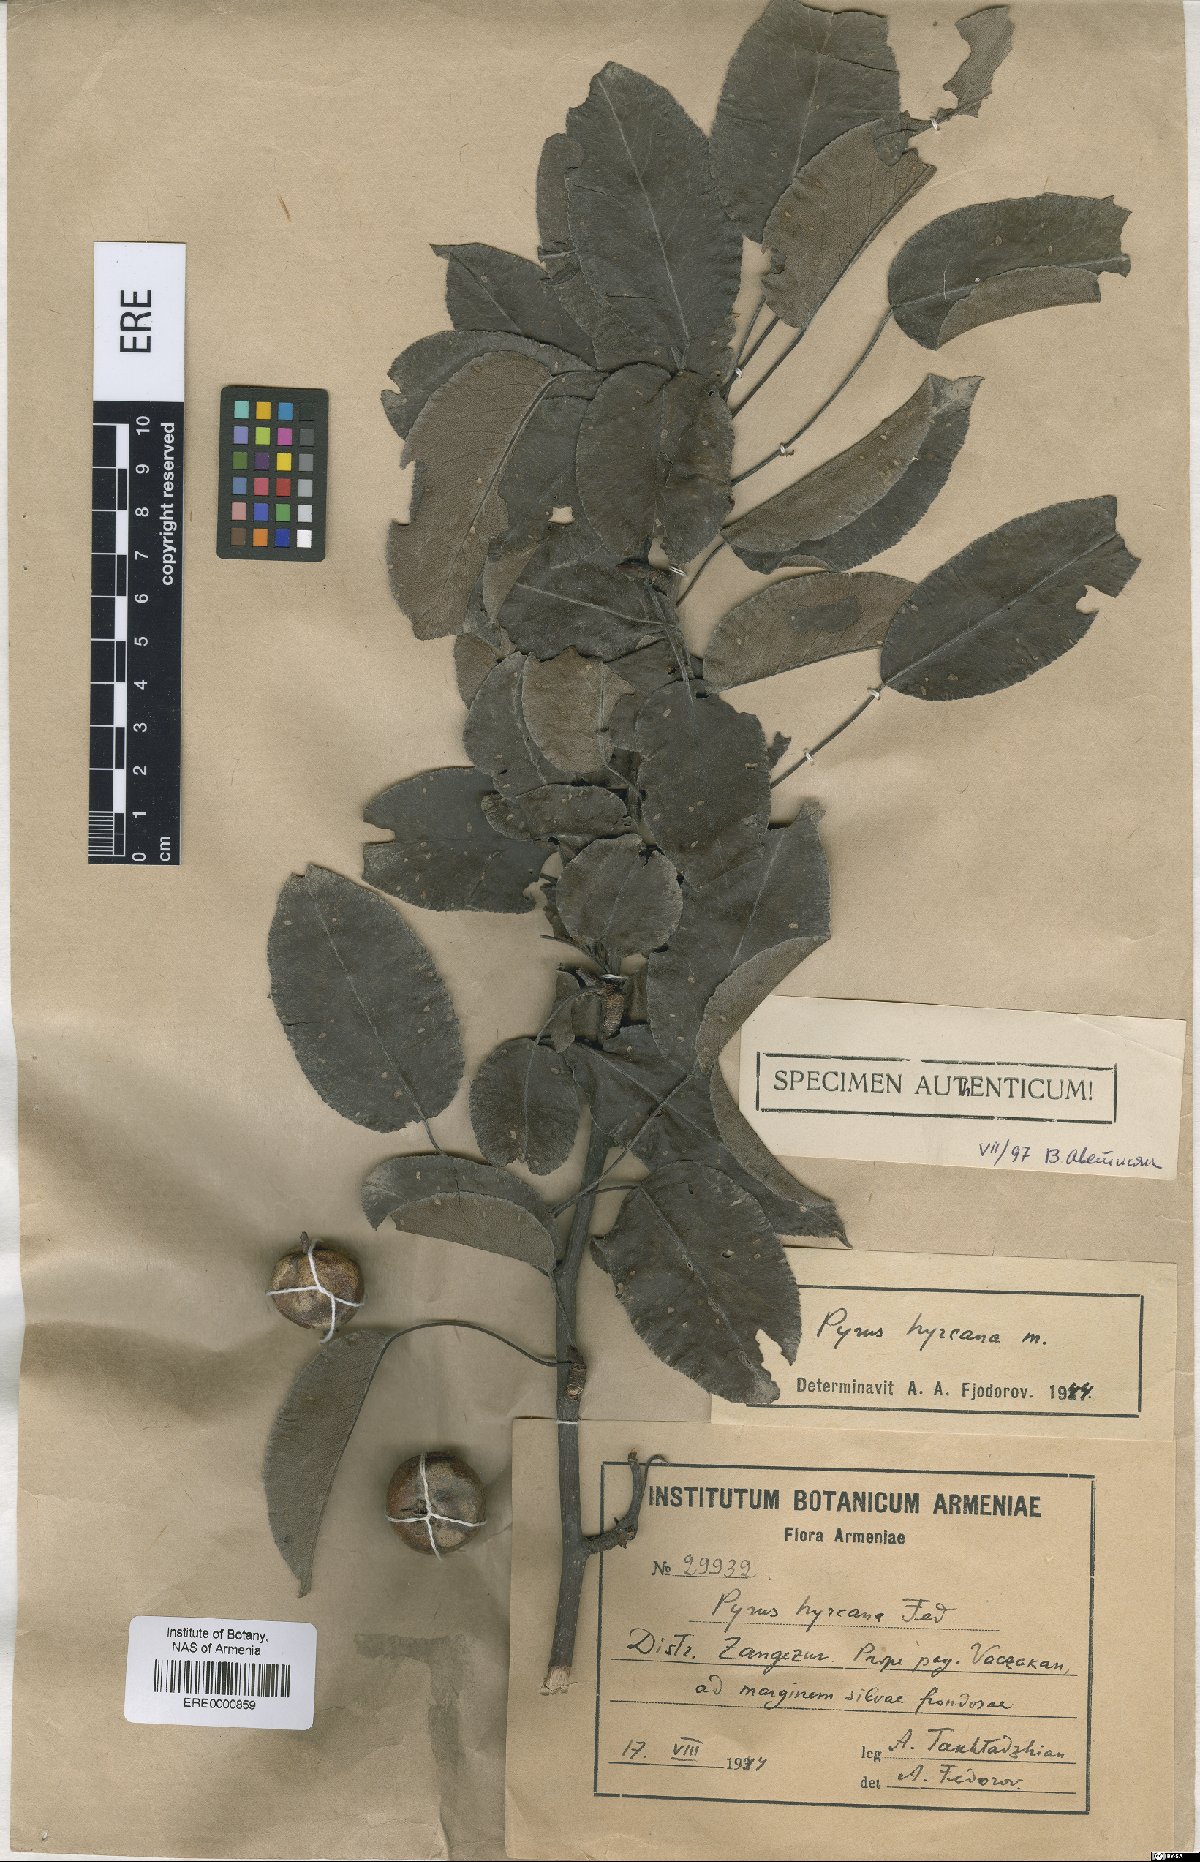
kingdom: Plantae
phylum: Tracheophyta
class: Magnoliopsida
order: Rosales
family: Rosaceae
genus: Pyrus
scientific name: Pyrus hyrcana
